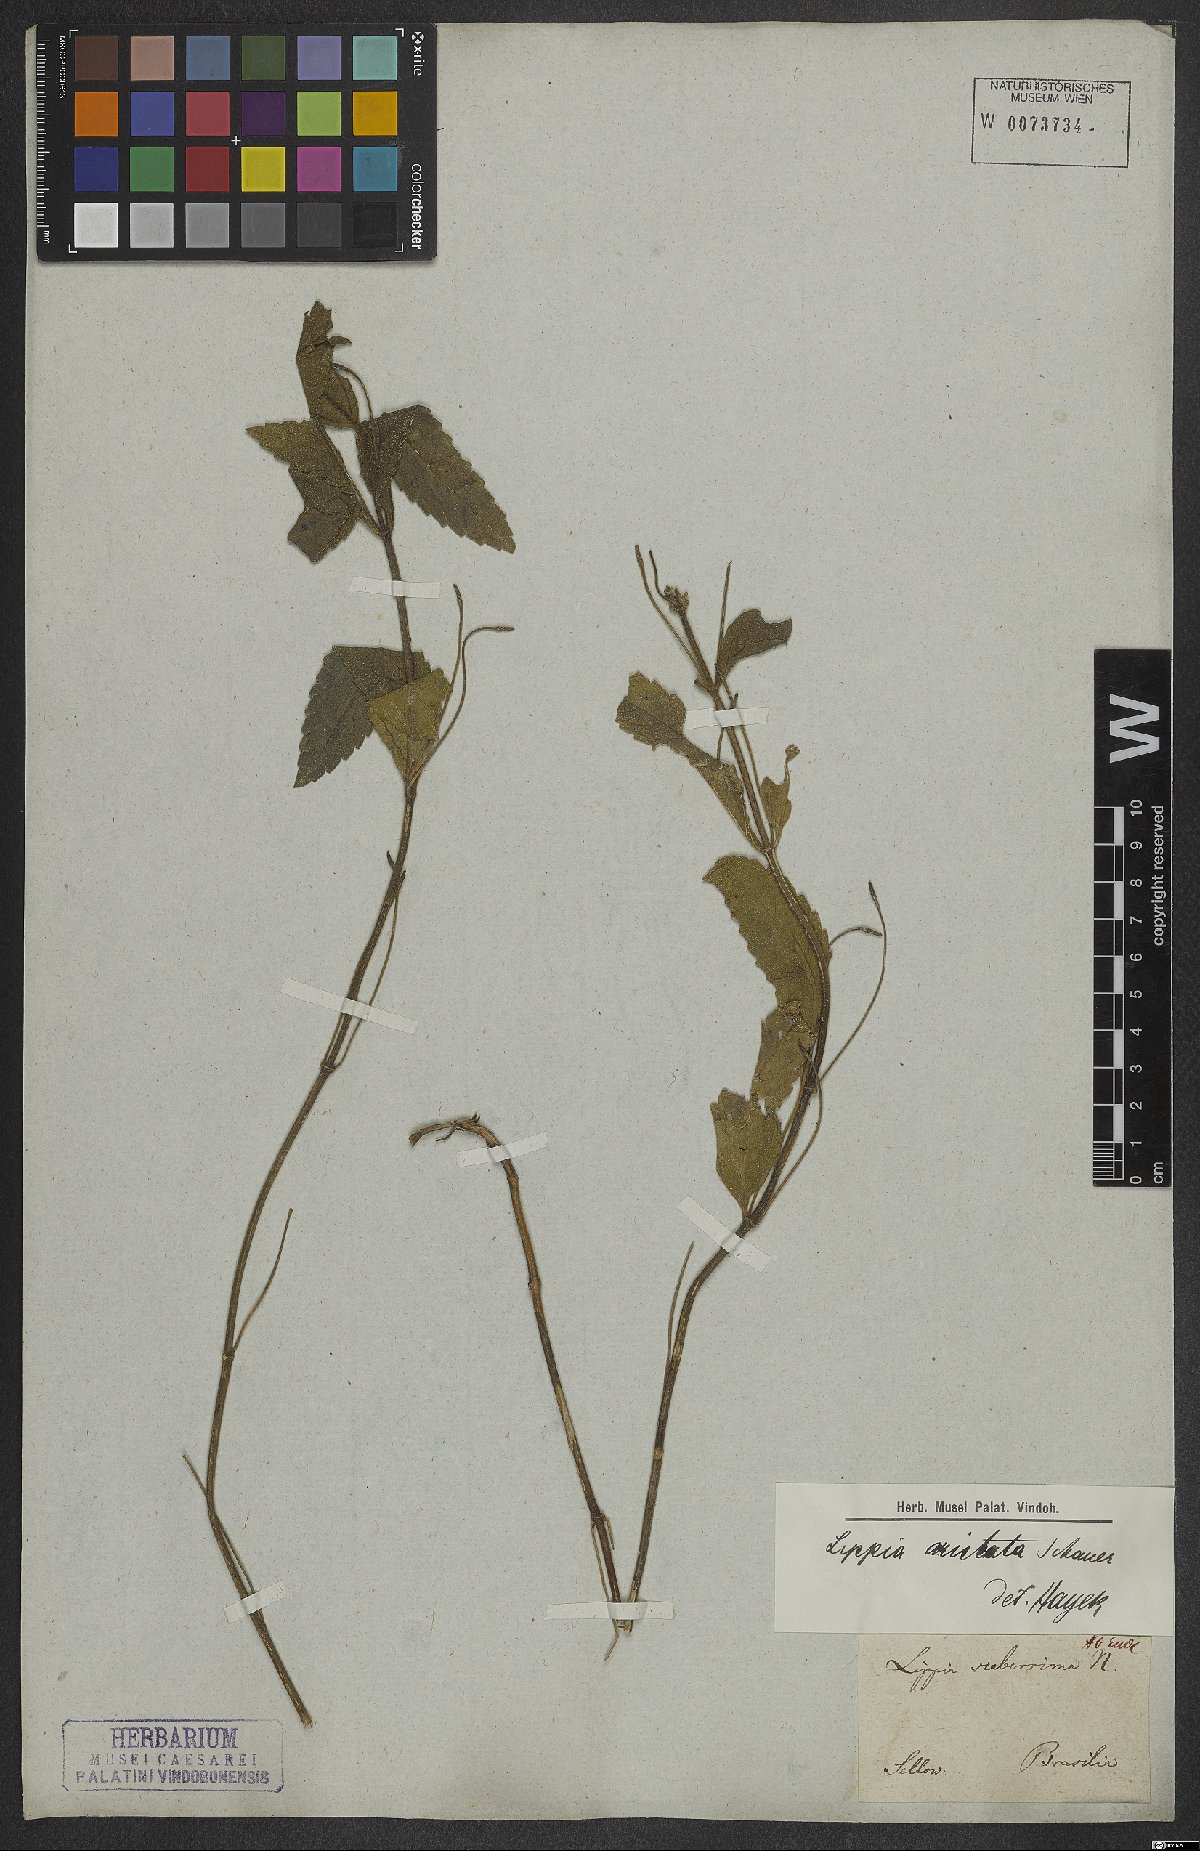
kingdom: Plantae
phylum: Tracheophyta
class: Magnoliopsida
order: Lamiales
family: Verbenaceae
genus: Lippia
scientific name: Lippia aristata
